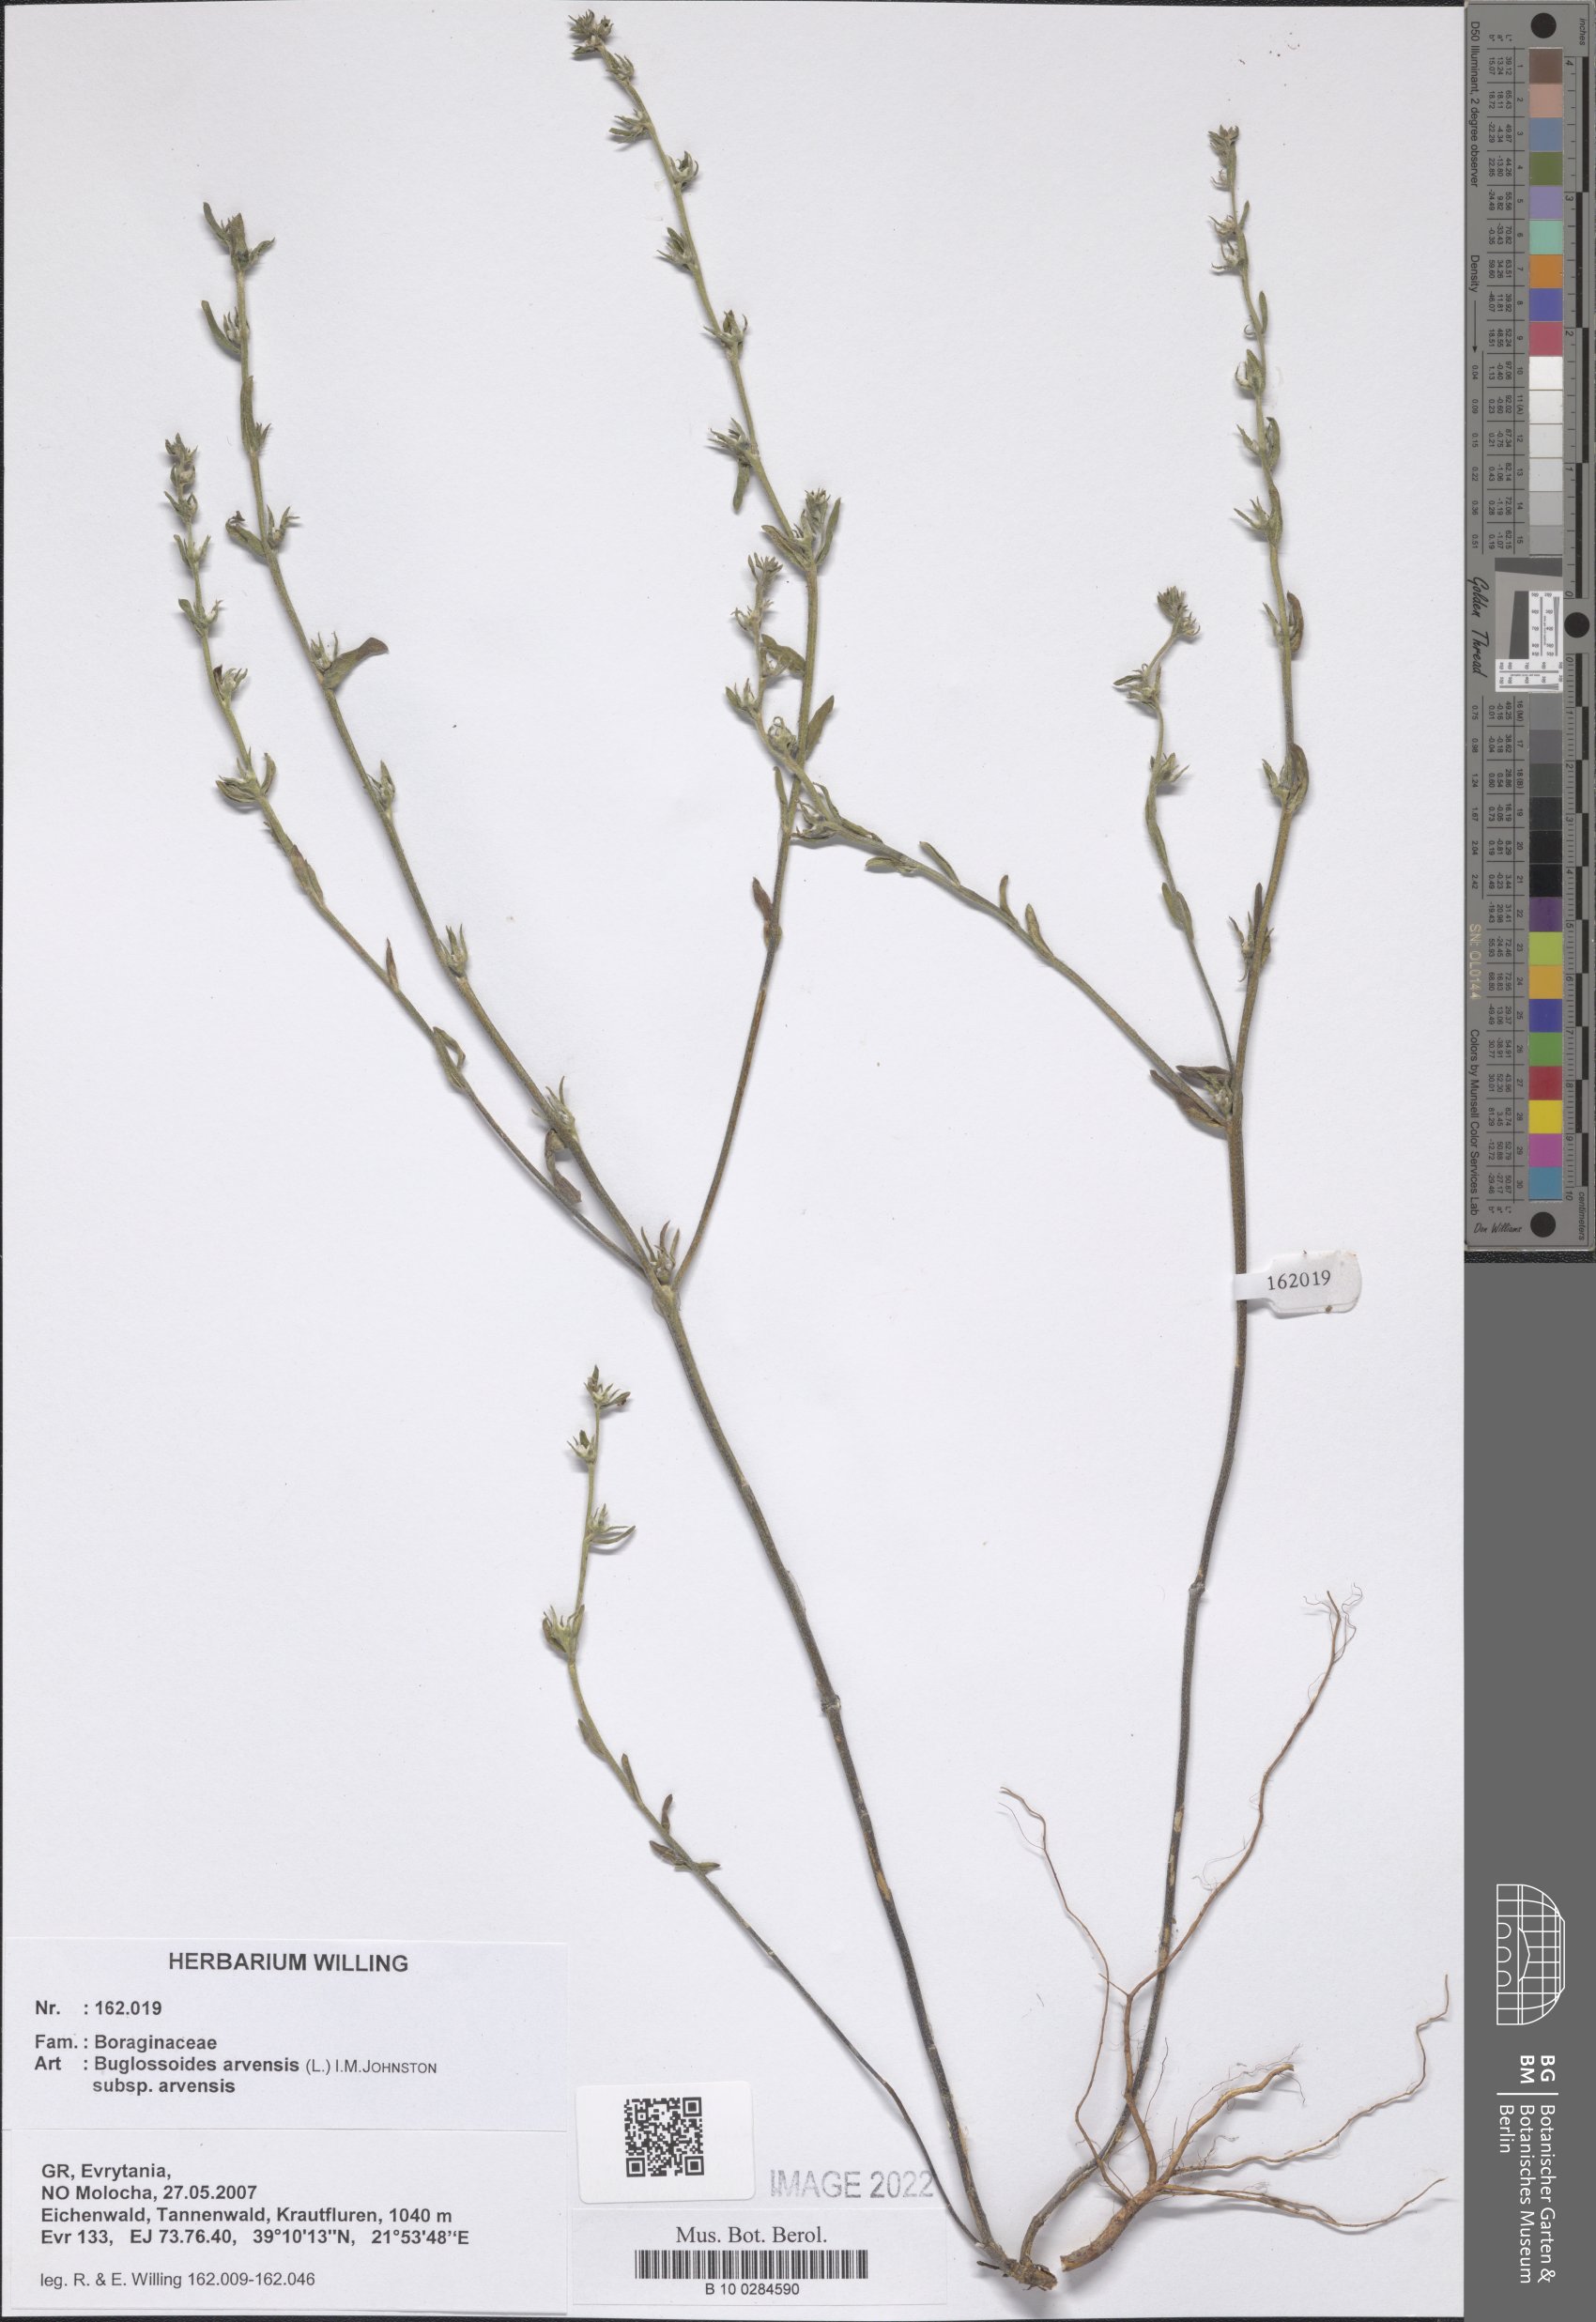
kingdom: Plantae
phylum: Tracheophyta
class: Magnoliopsida
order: Boraginales
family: Boraginaceae
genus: Buglossoides
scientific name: Buglossoides arvensis
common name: Corn gromwell
